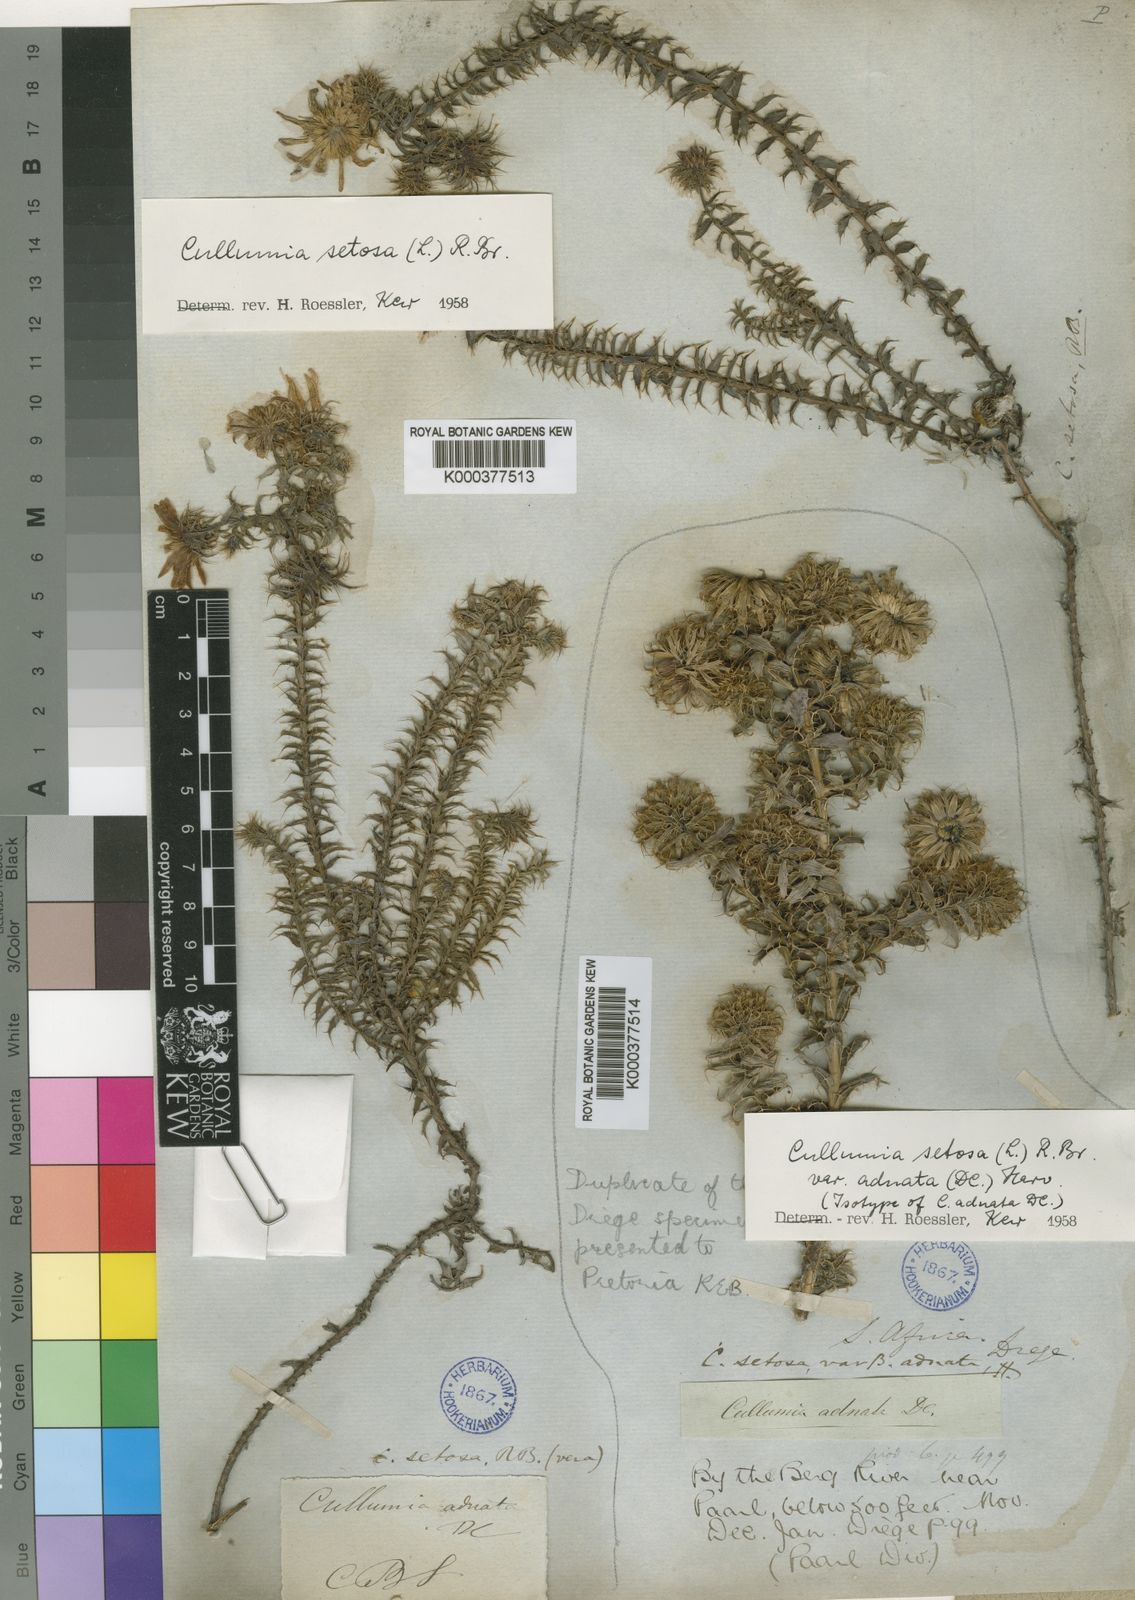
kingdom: Plantae
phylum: Tracheophyta
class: Magnoliopsida
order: Asterales
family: Asteraceae
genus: Cullumia
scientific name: Cullumia setosa
